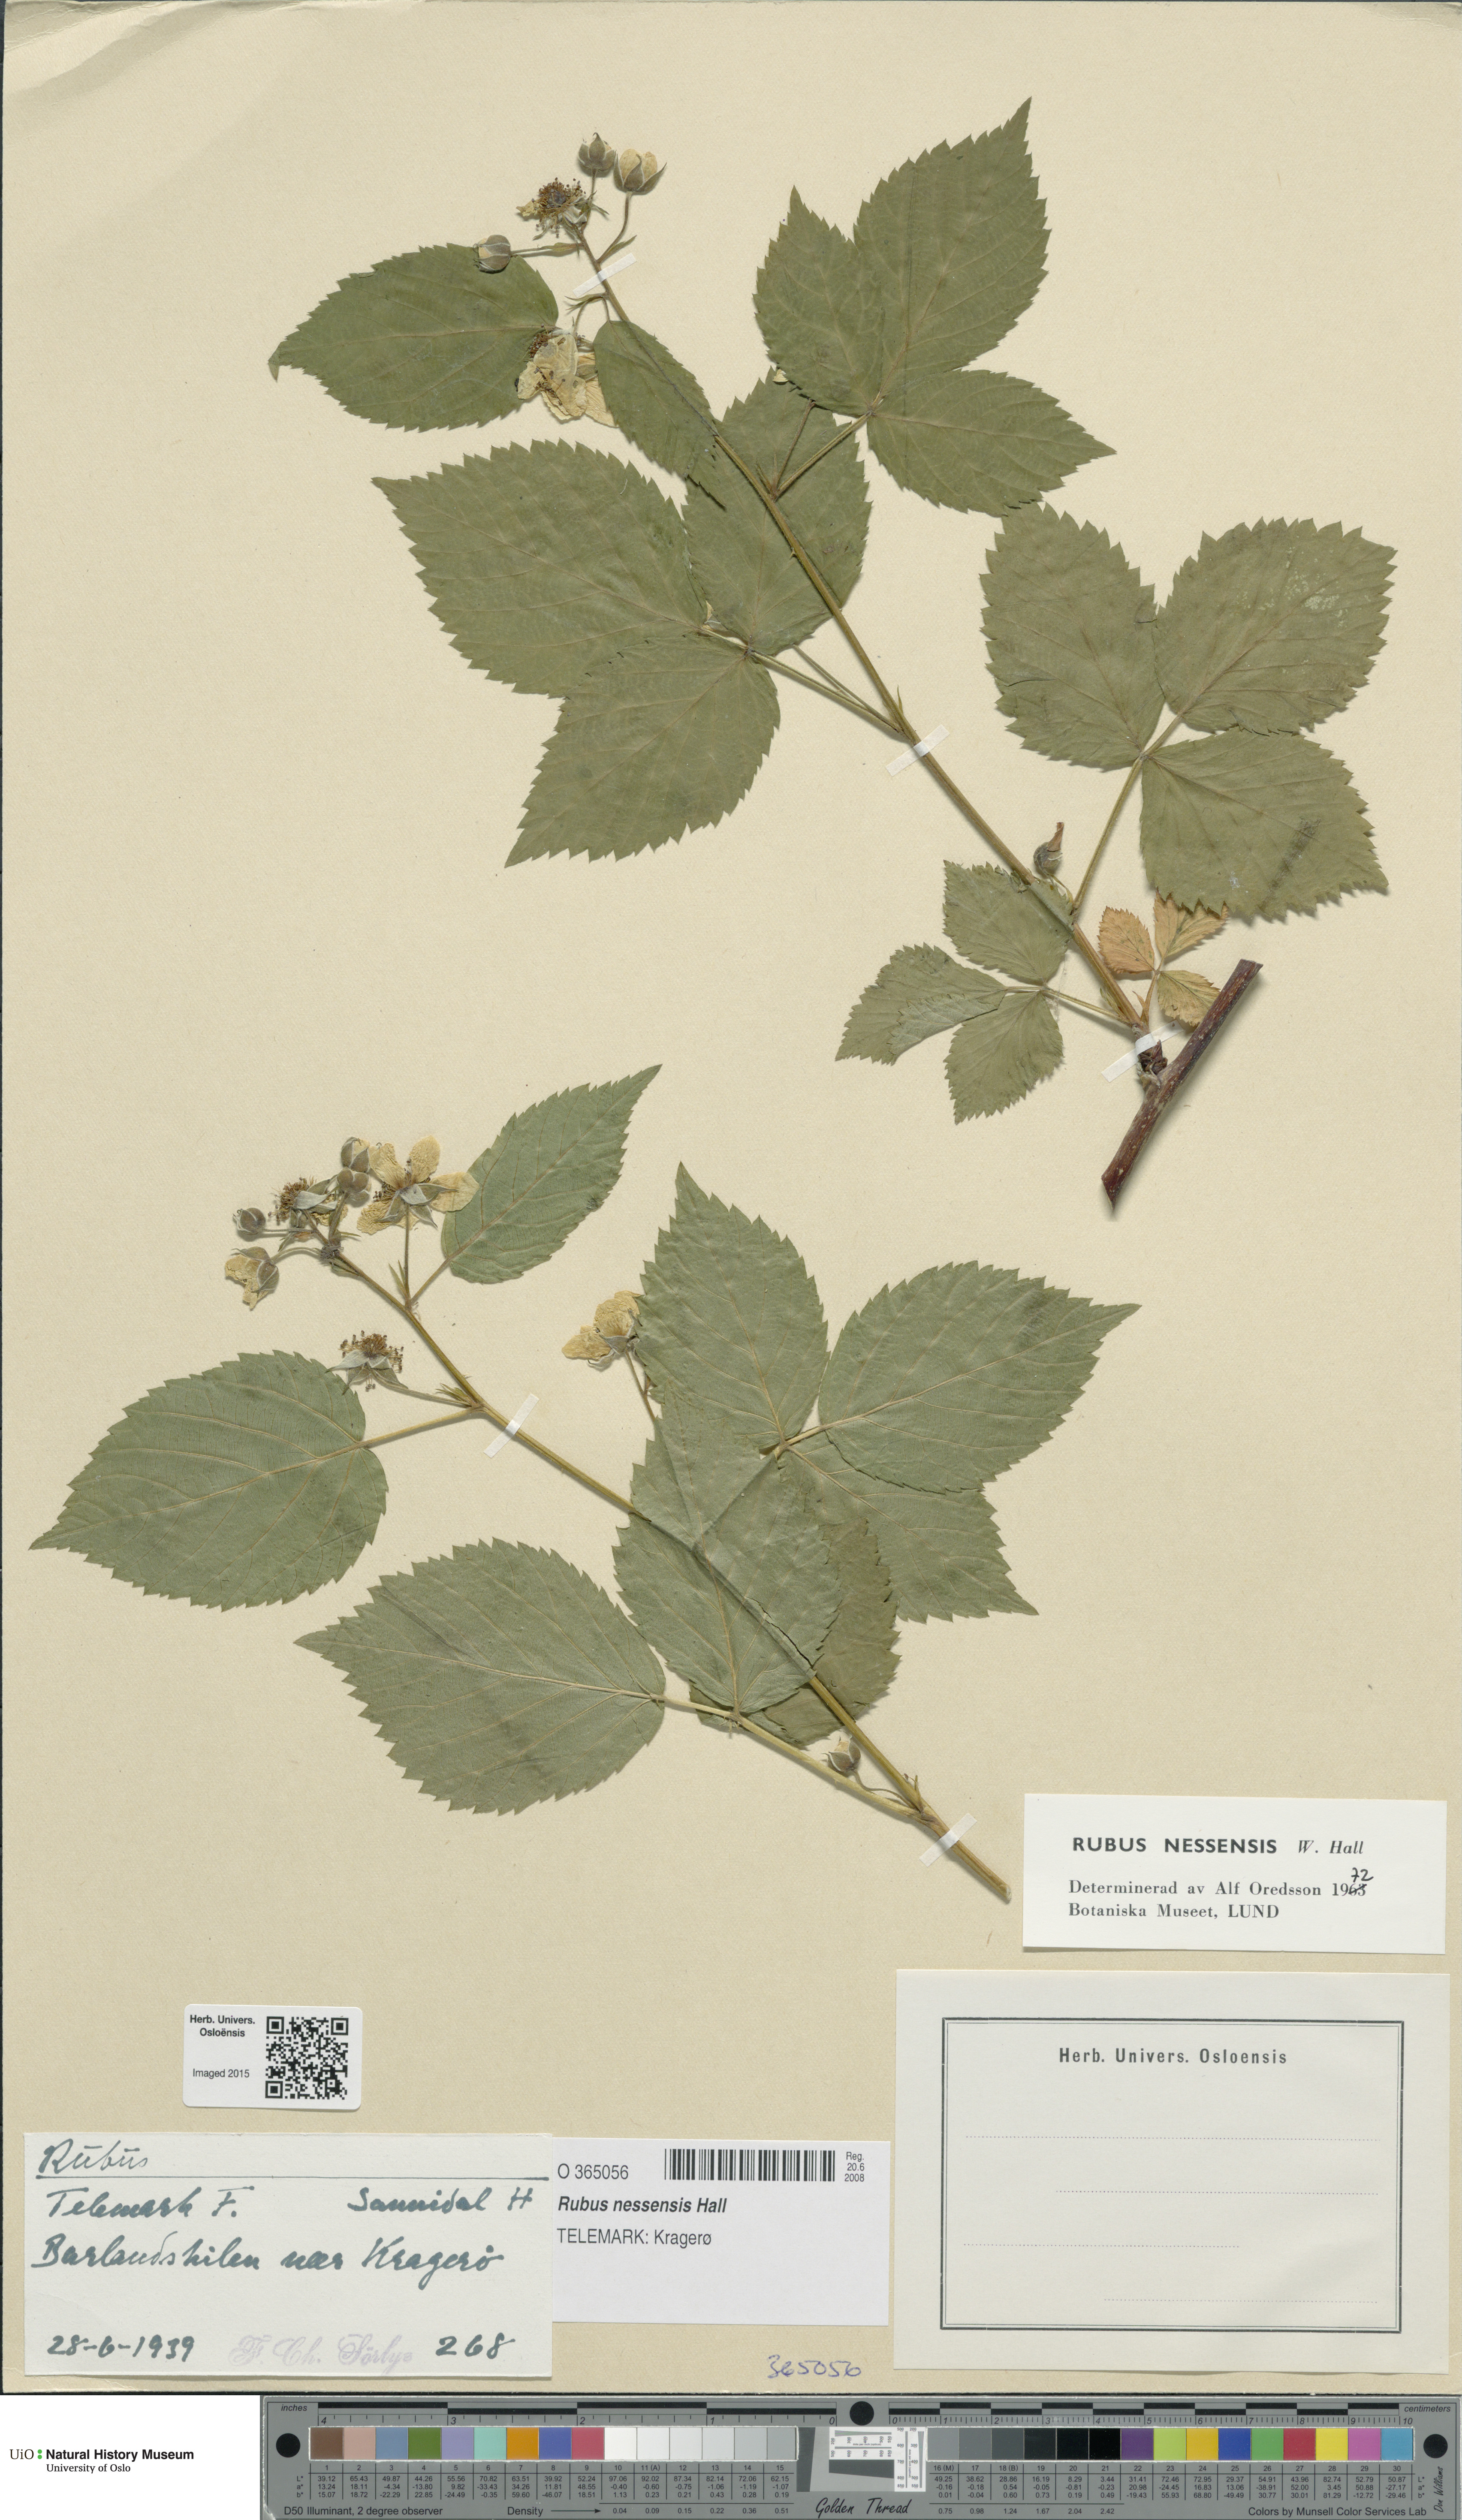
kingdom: Plantae
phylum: Tracheophyta
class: Magnoliopsida
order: Rosales
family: Rosaceae
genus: Rubus
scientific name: Rubus polonicus
